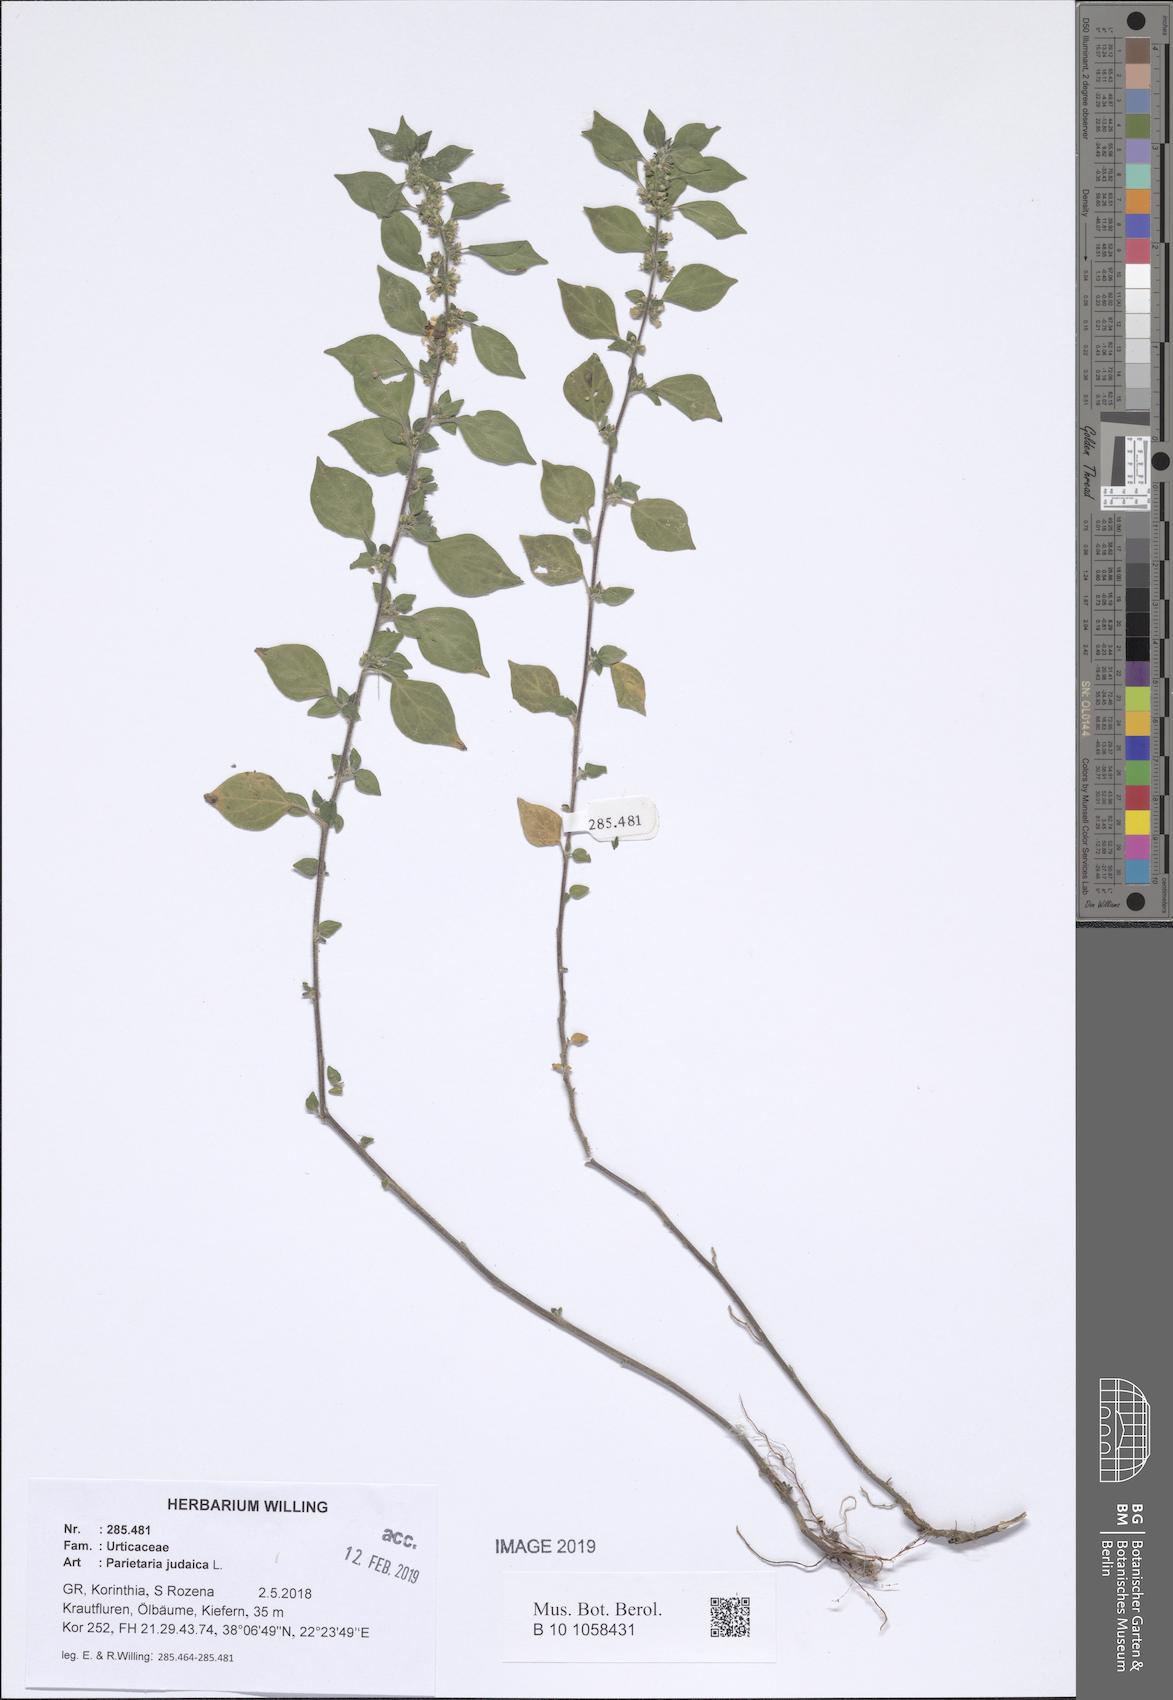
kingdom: Plantae
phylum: Tracheophyta
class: Magnoliopsida
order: Rosales
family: Urticaceae
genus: Parietaria
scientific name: Parietaria judaica
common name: Pellitory-of-the-wall
